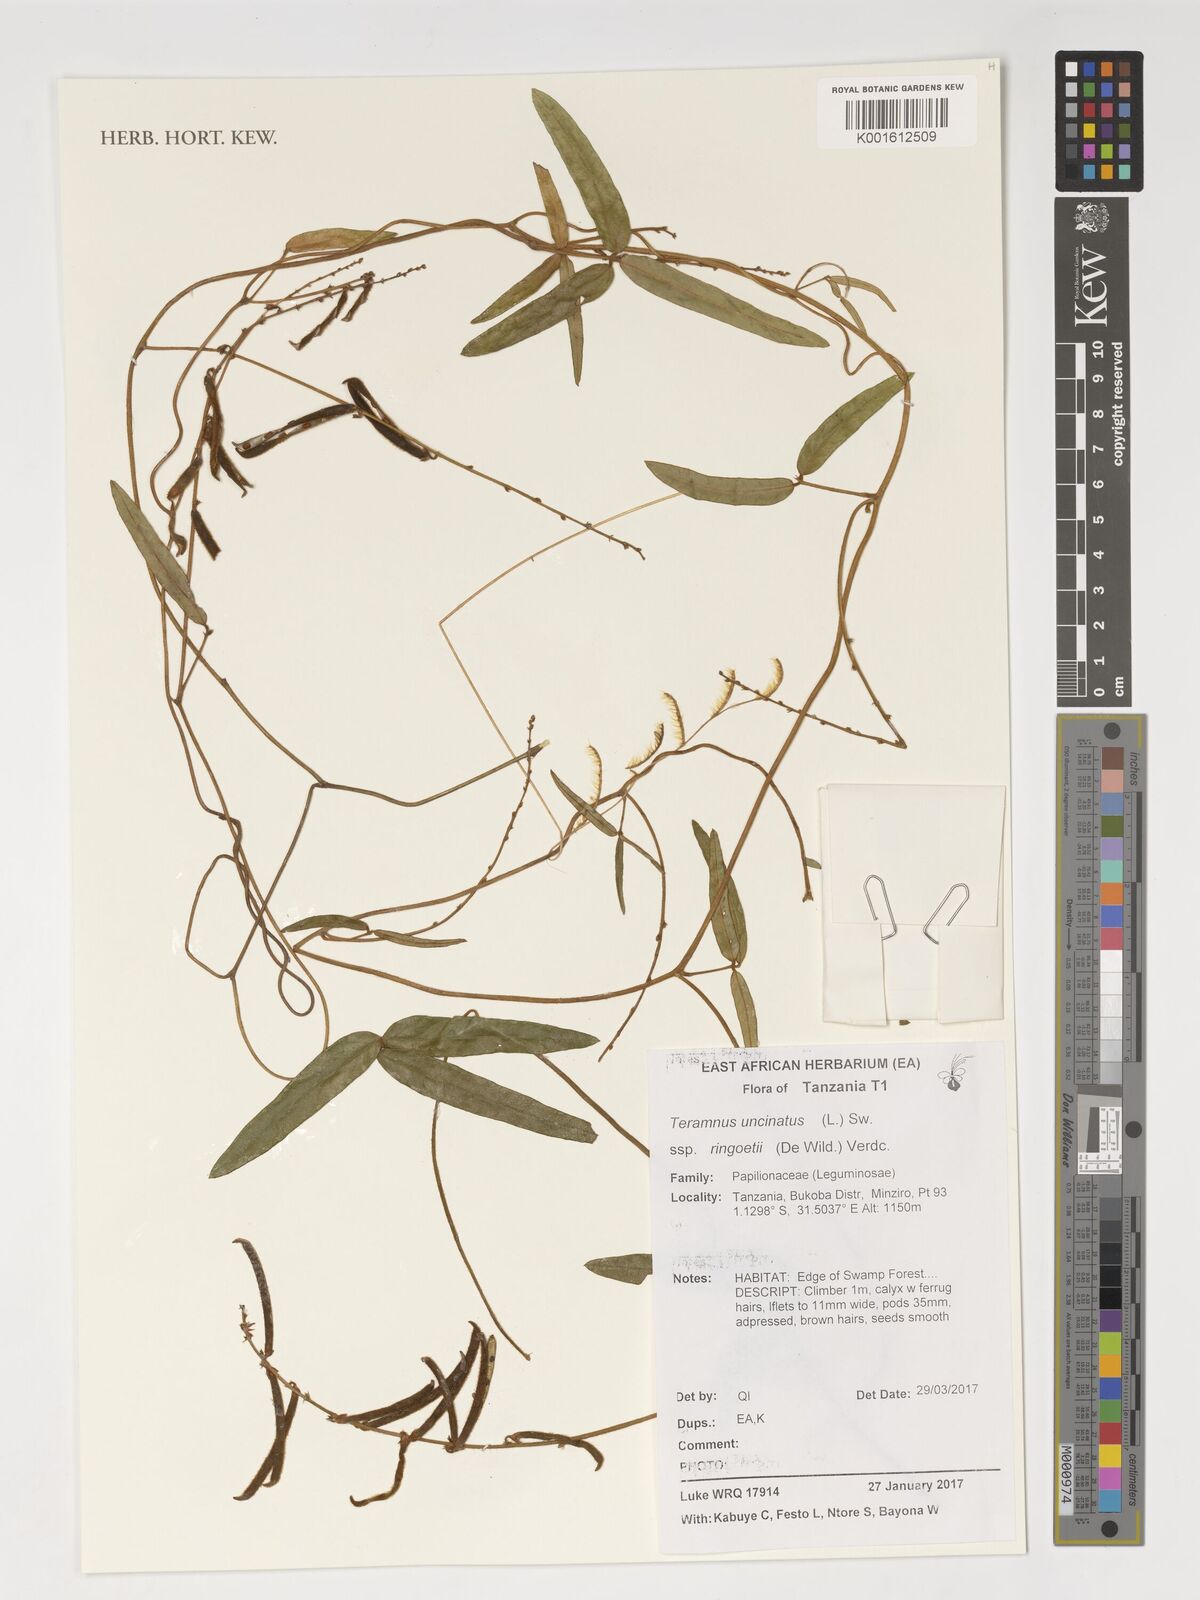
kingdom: Plantae
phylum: Tracheophyta
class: Magnoliopsida
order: Fabales
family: Fabaceae
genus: Teramnus
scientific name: Teramnus uncinatus
